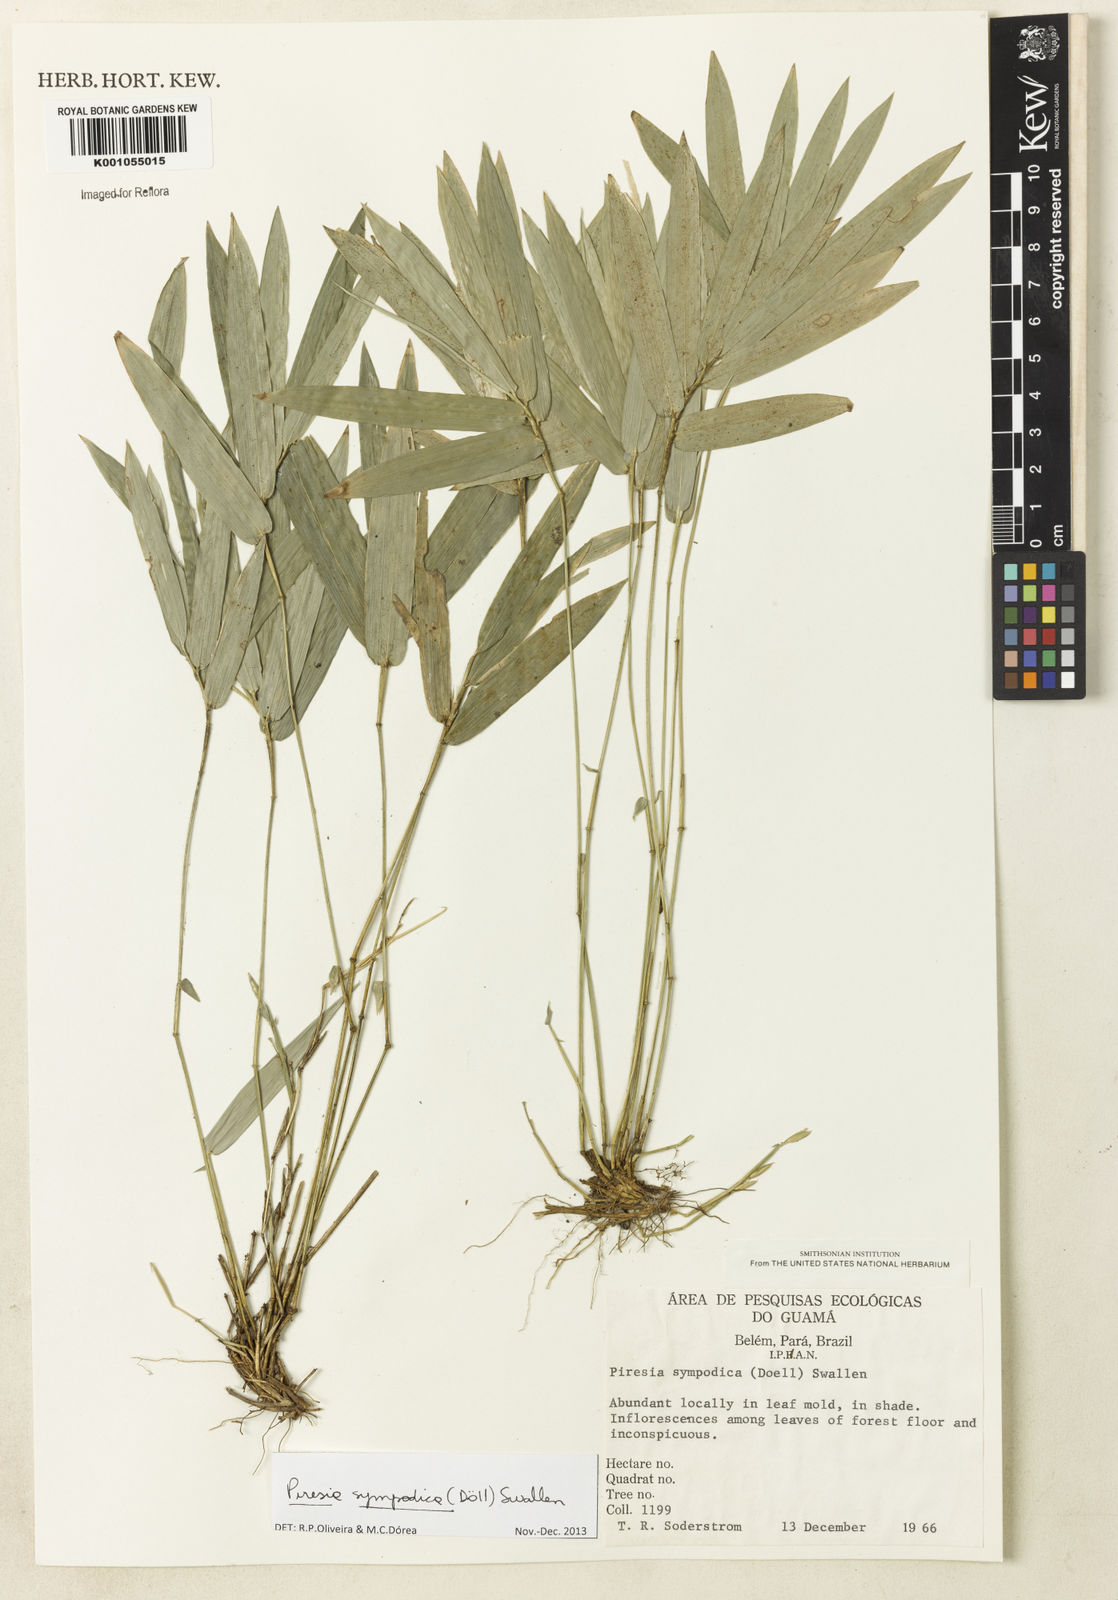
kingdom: Plantae
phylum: Tracheophyta
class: Liliopsida
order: Poales
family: Poaceae
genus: Piresia
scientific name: Piresia
